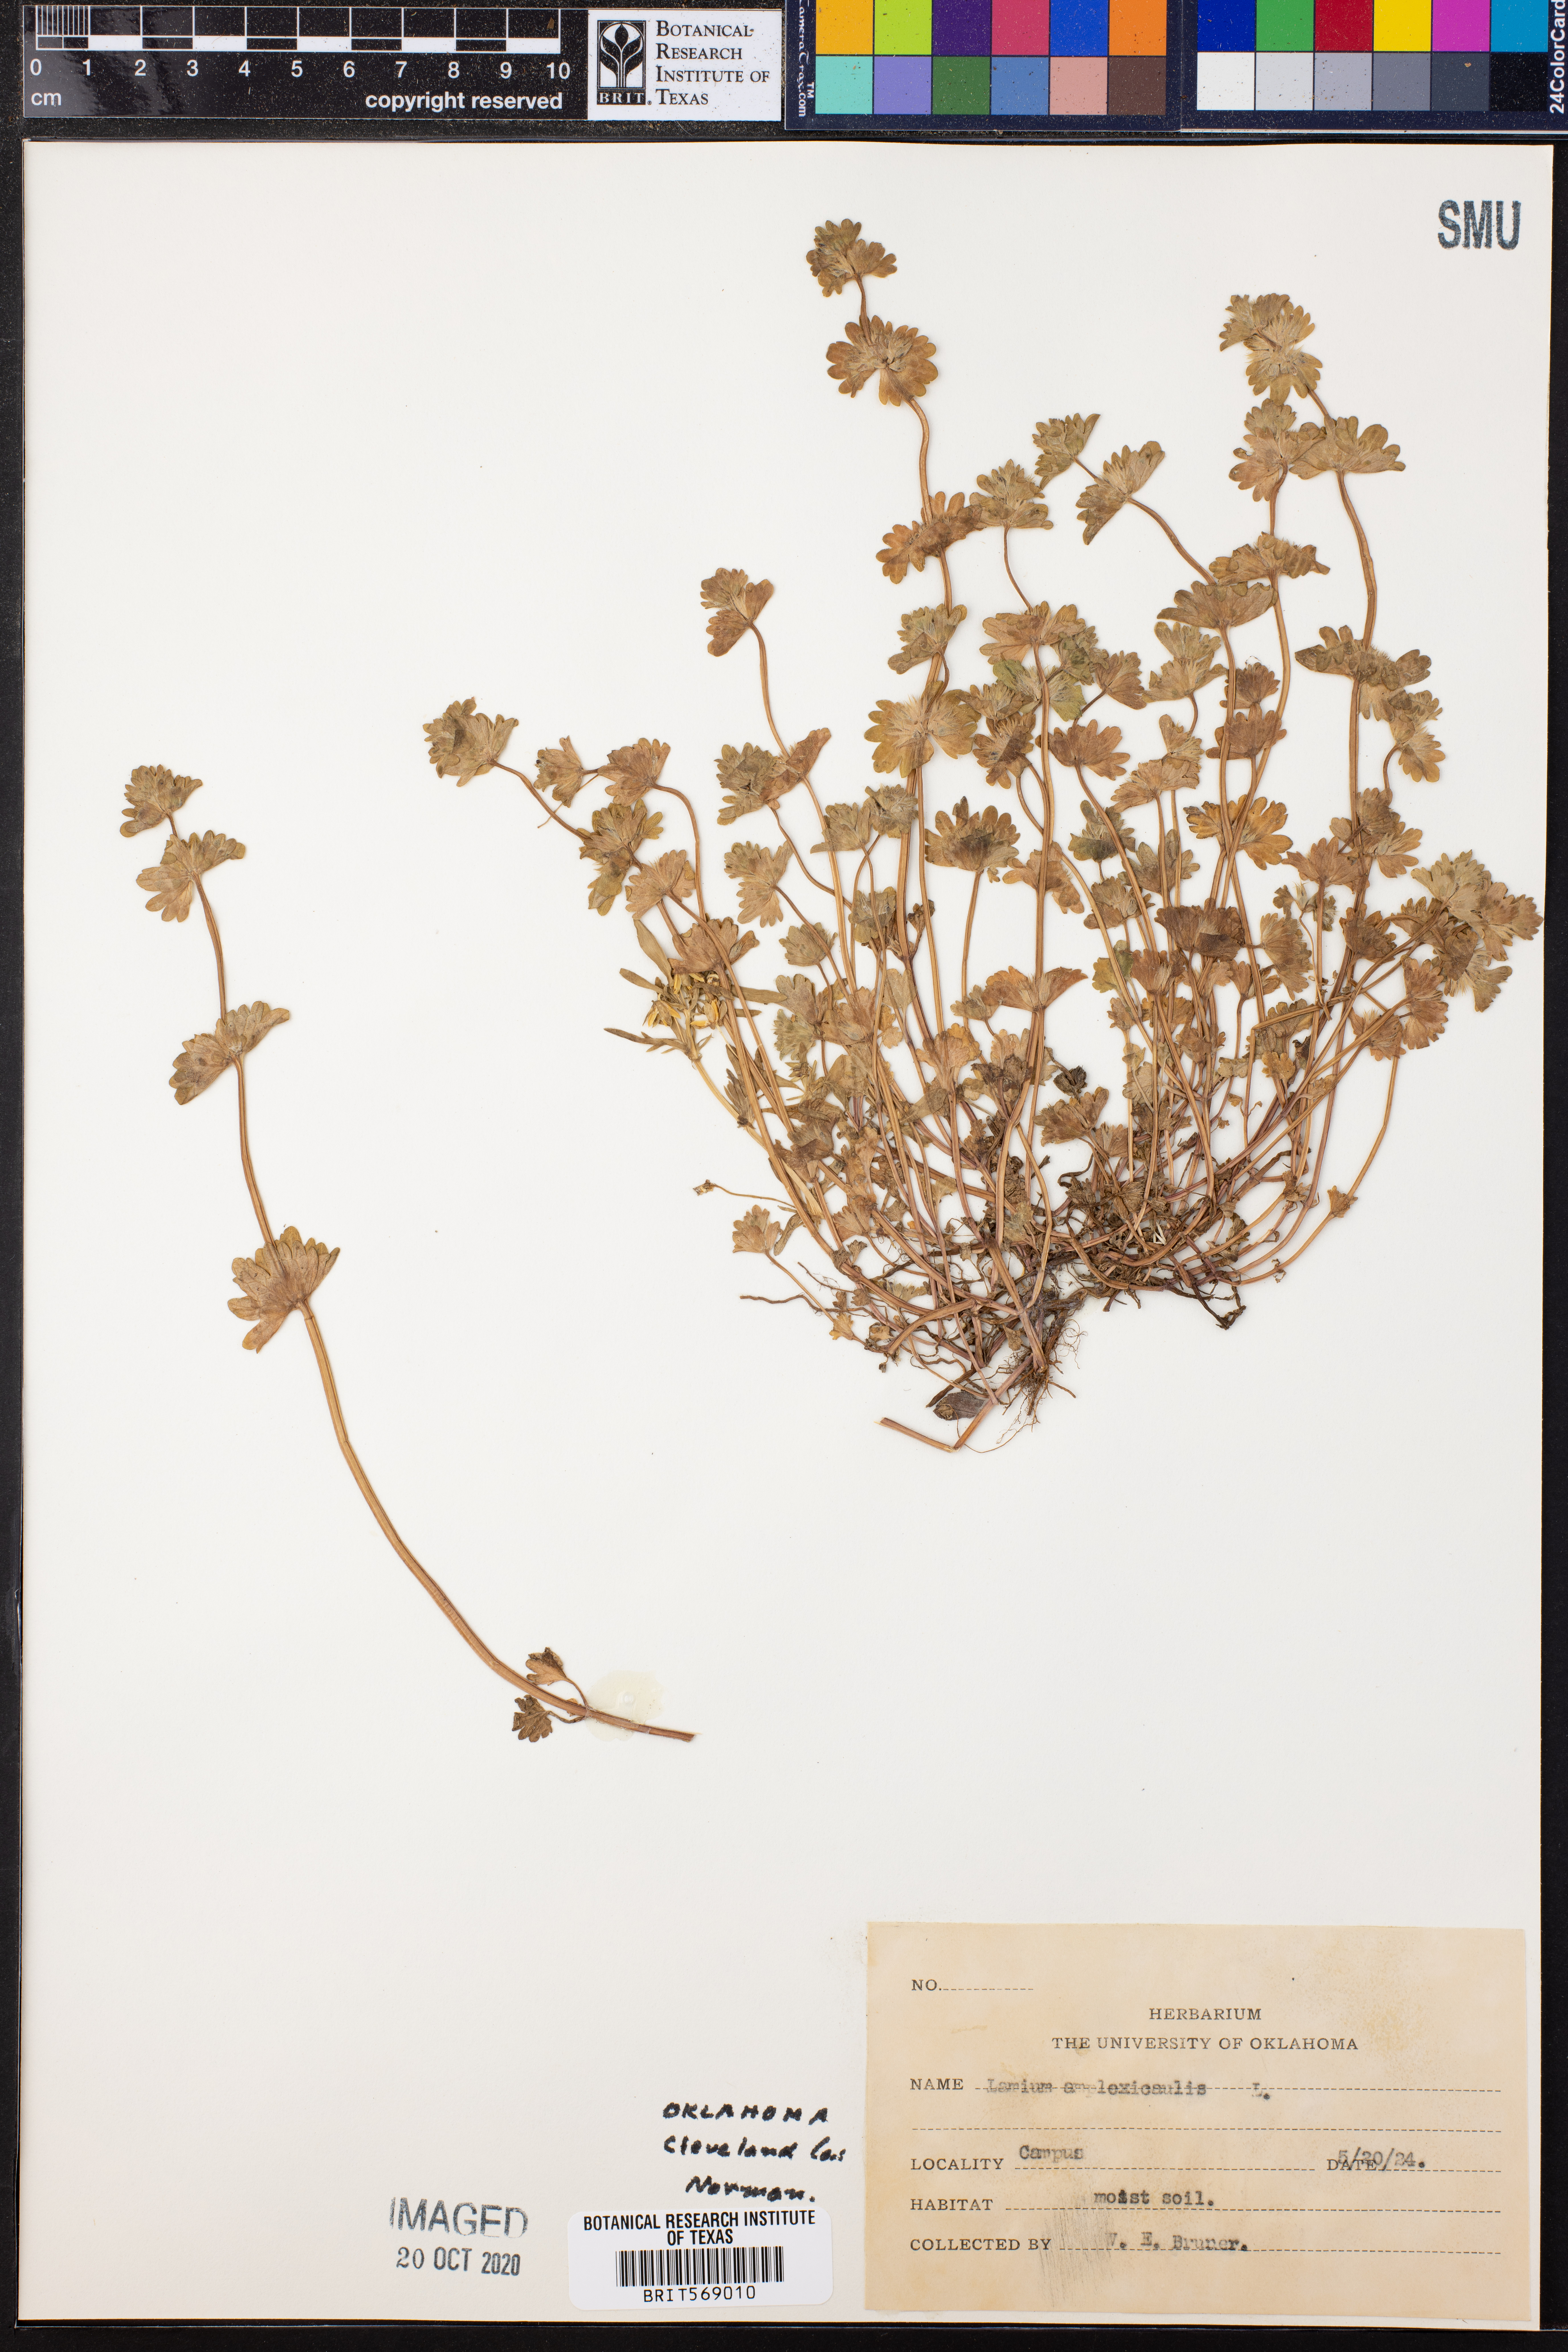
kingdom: Plantae
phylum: Tracheophyta
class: Magnoliopsida
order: Lamiales
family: Lamiaceae
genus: Lamium
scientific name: Lamium amplexicaule
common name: Henbit dead-nettle
